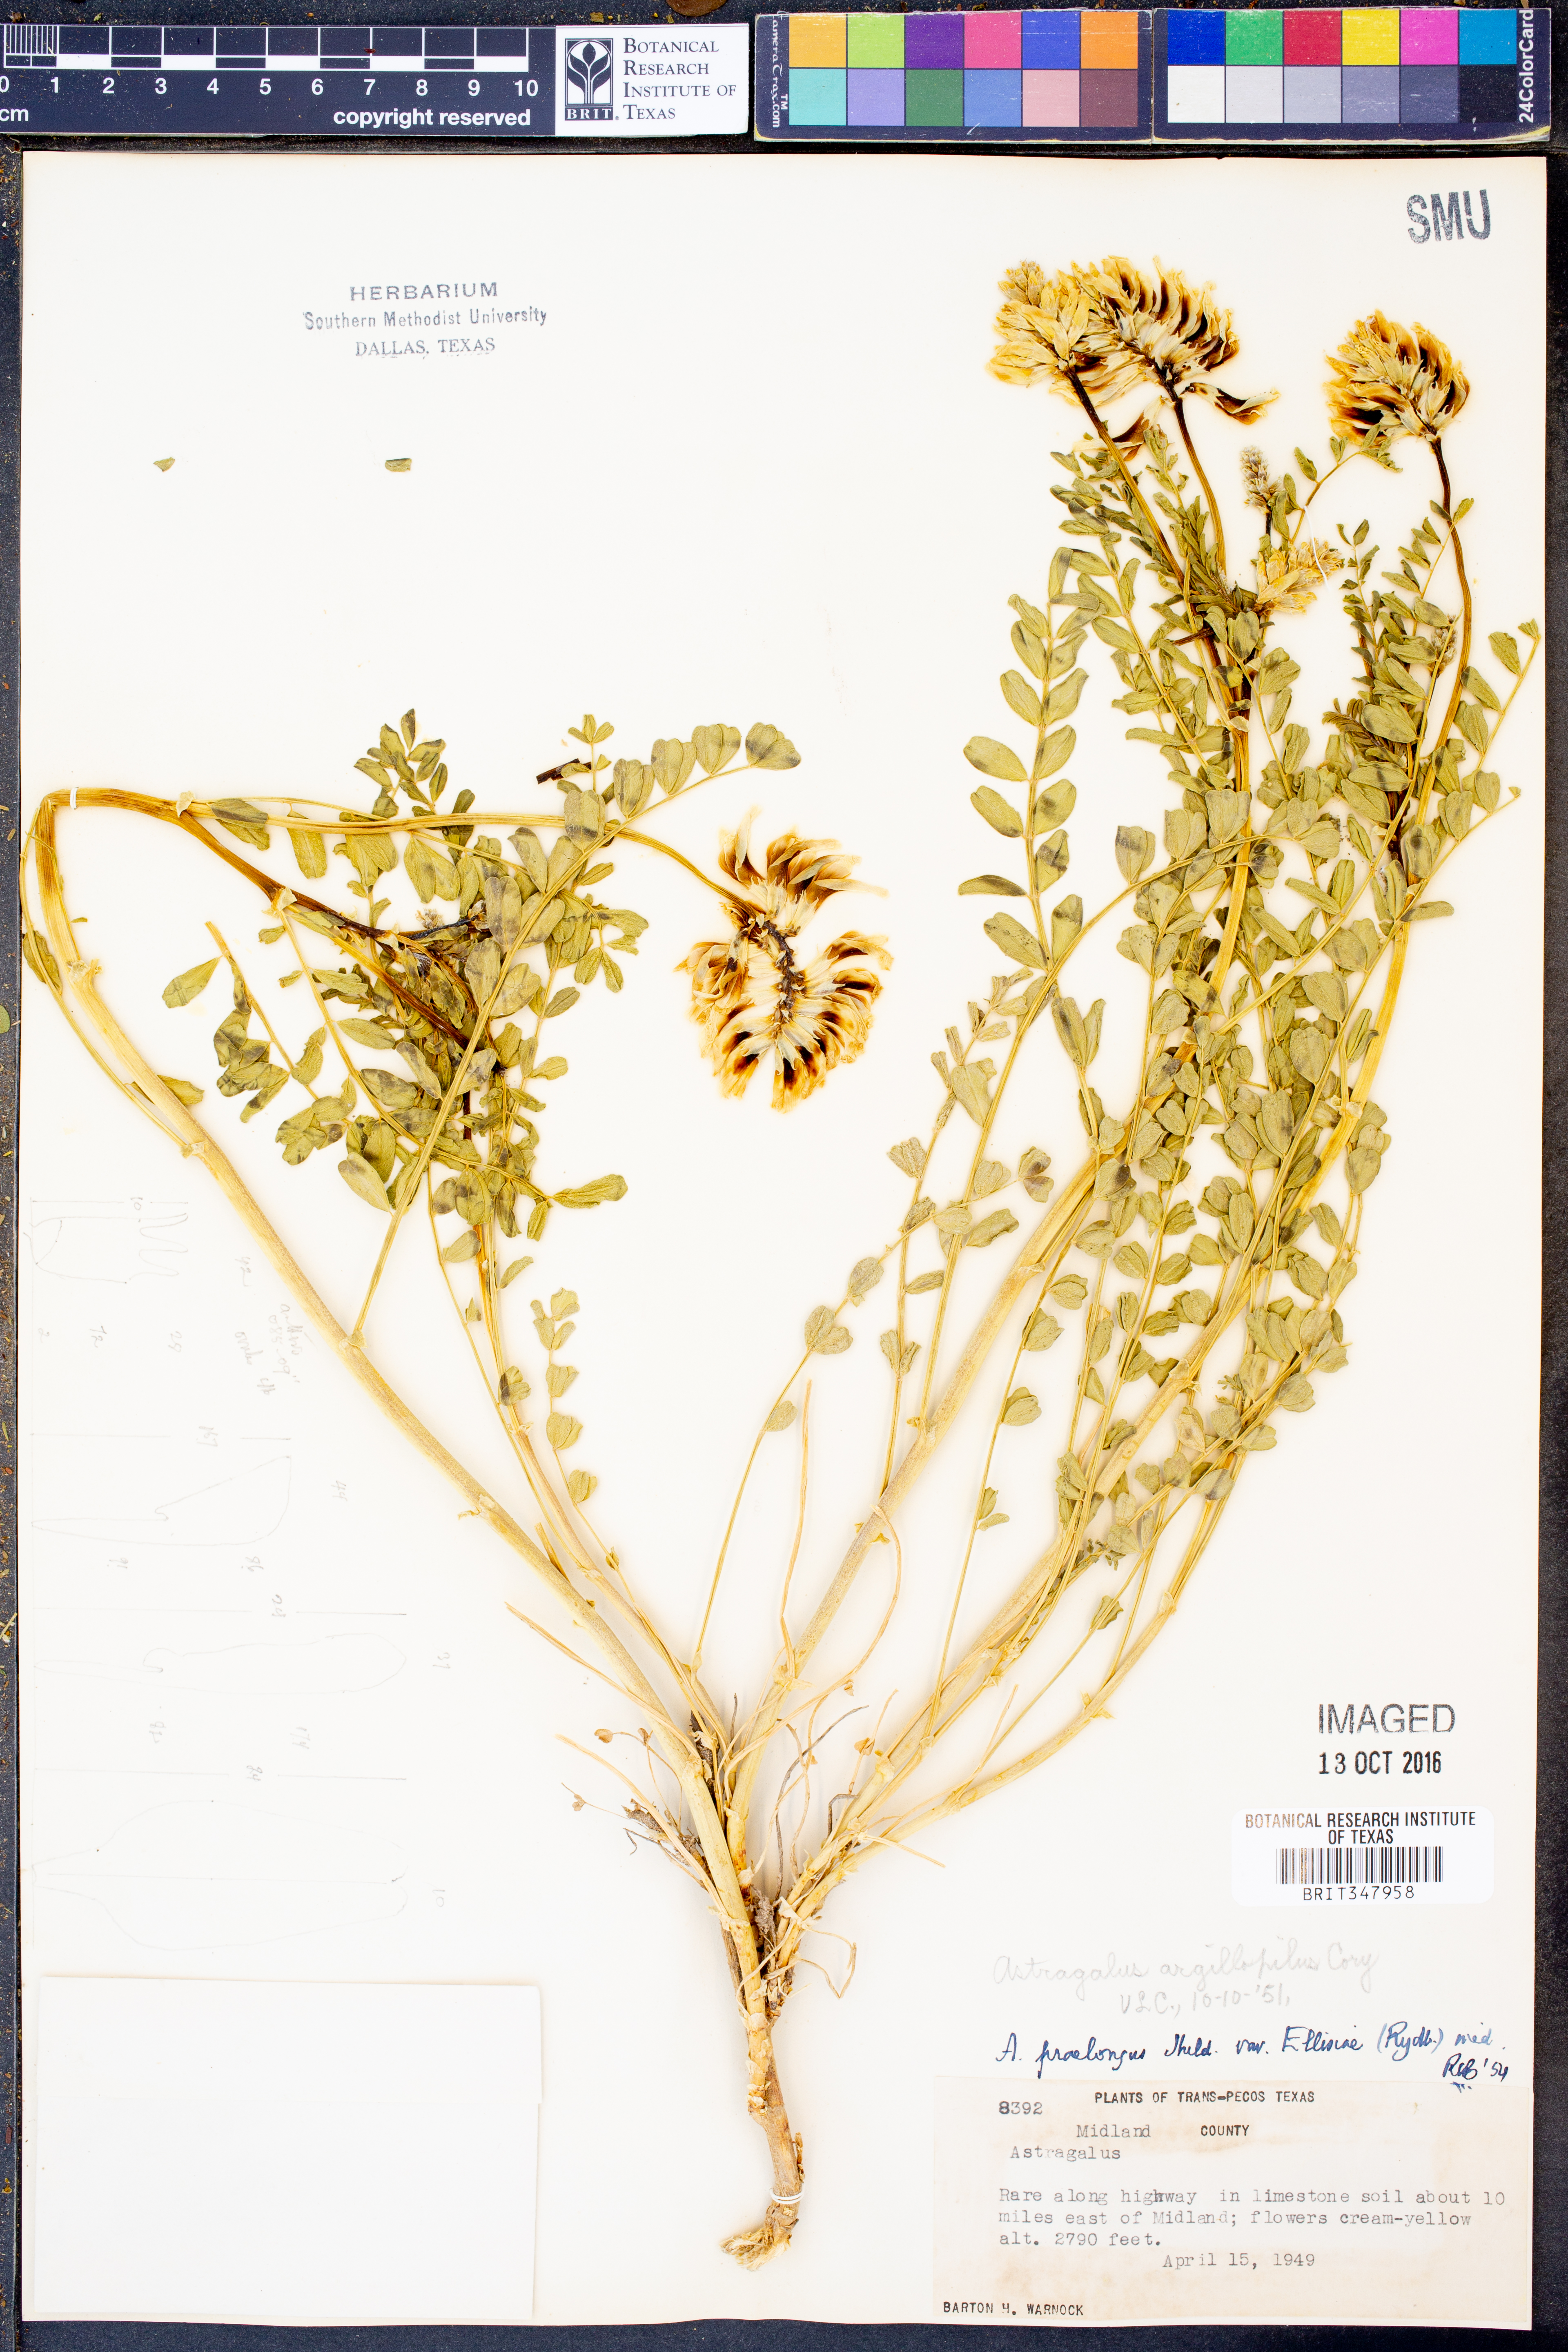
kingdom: Plantae
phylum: Tracheophyta
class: Magnoliopsida
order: Fabales
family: Fabaceae
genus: Astragalus
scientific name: Astragalus mollissimus
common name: Woolly locoweed
